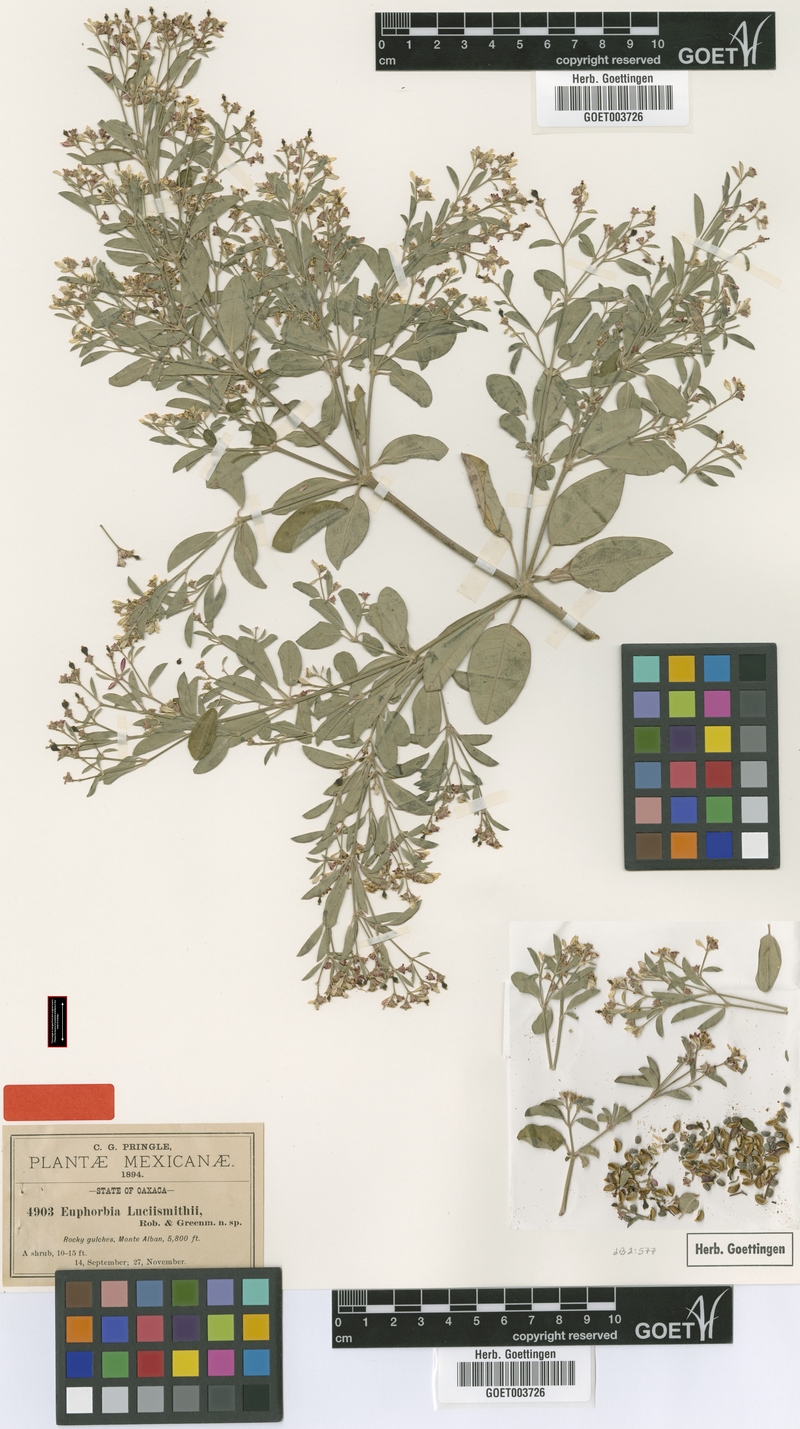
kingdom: Plantae
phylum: Tracheophyta
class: Magnoliopsida
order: Malpighiales
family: Euphorbiaceae
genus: Euphorbia
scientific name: Euphorbia lucii-smithii
